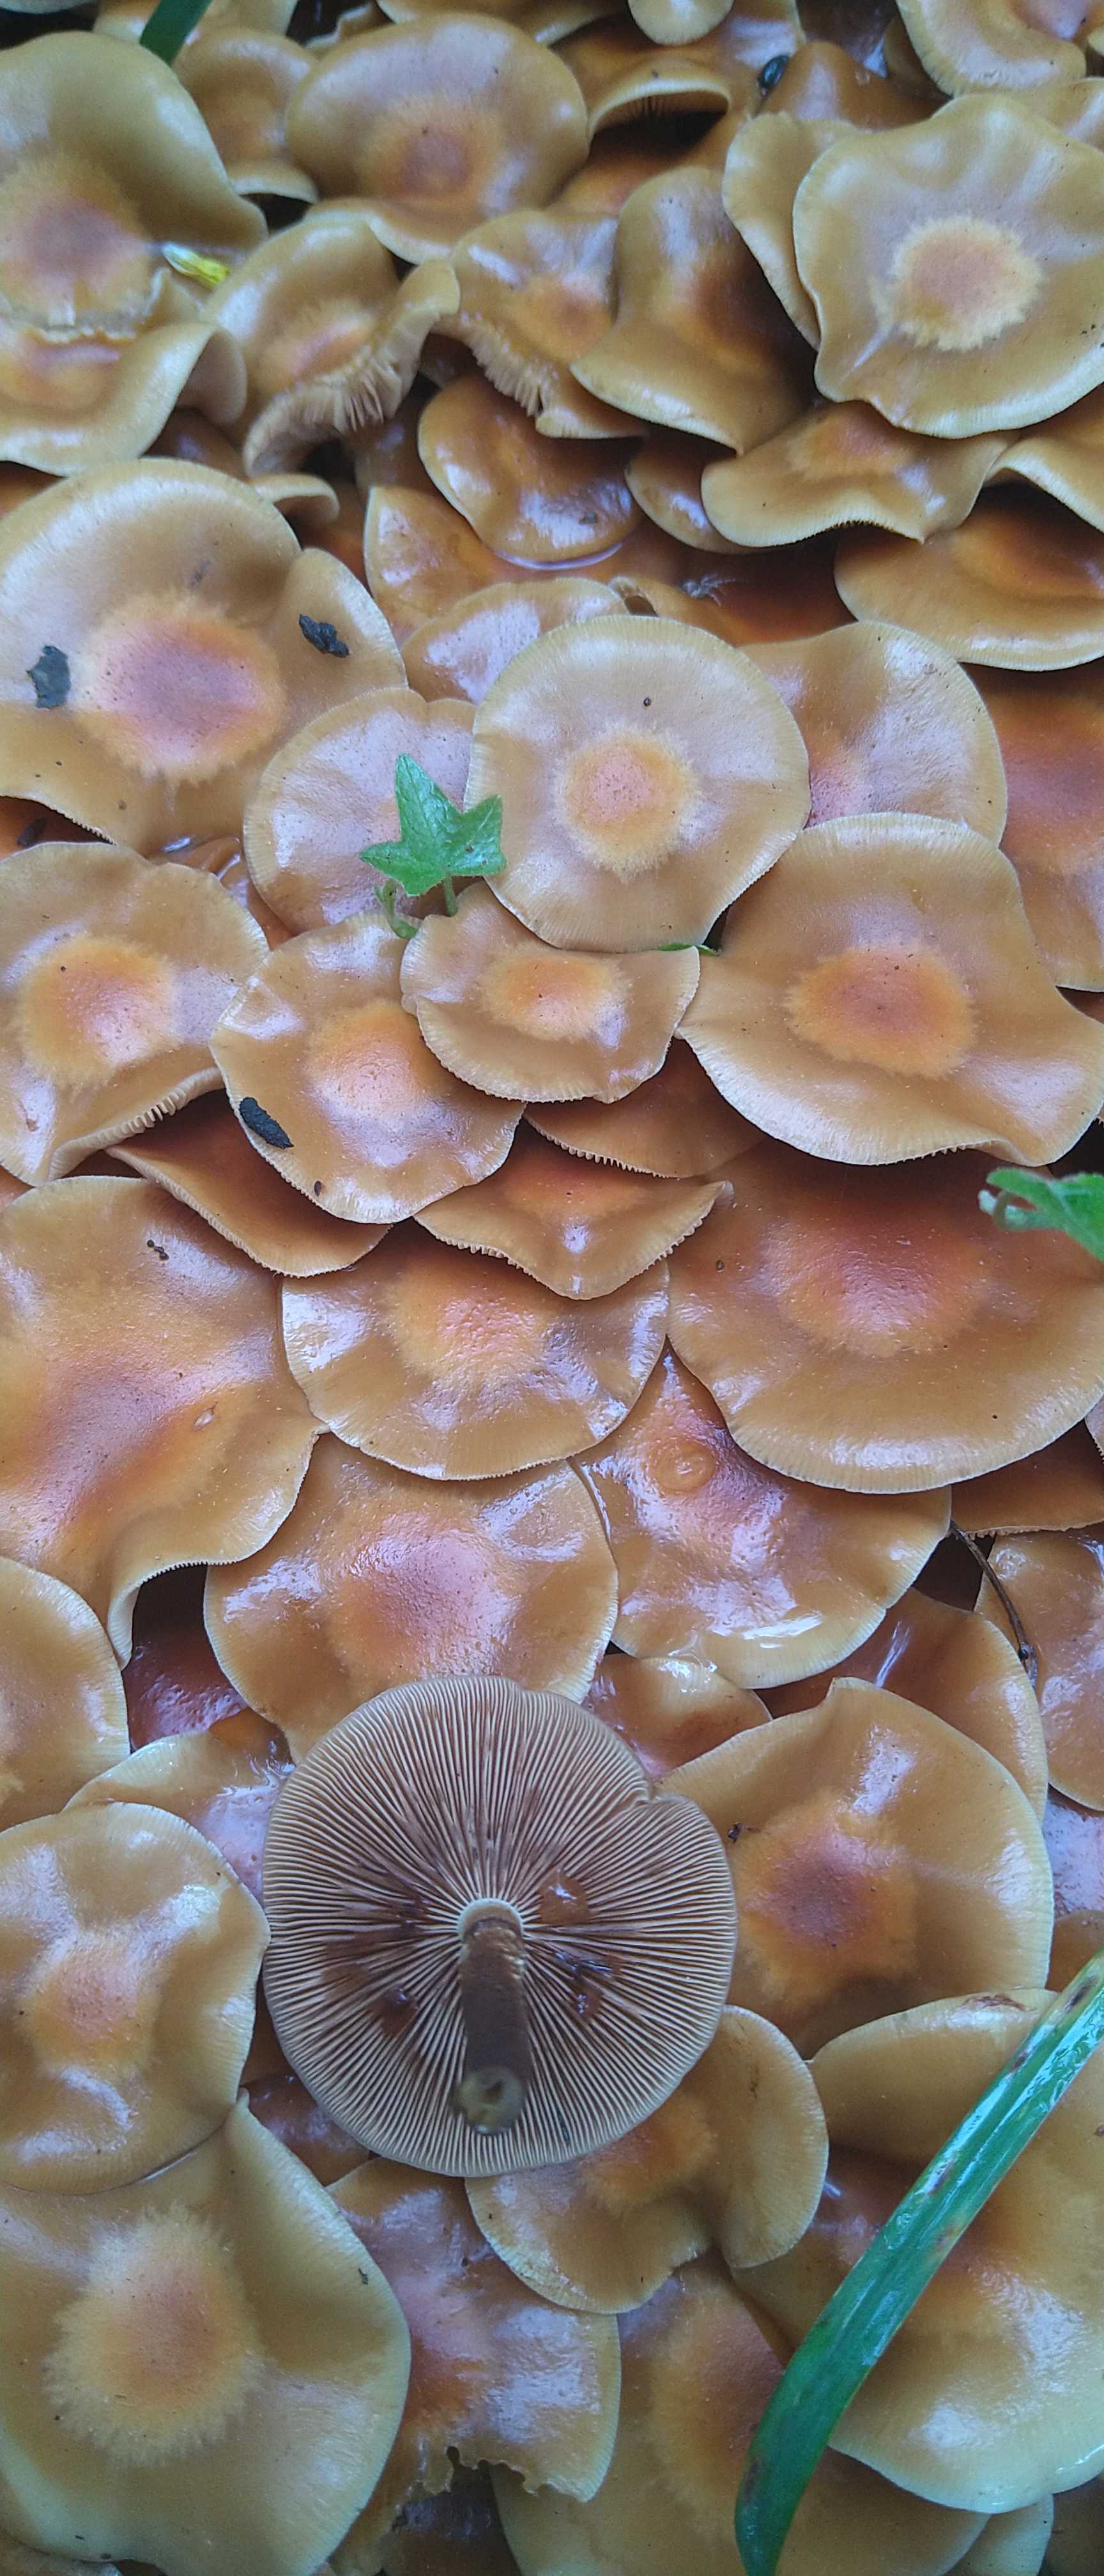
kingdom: Fungi
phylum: Basidiomycota
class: Agaricomycetes
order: Agaricales
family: Strophariaceae
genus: Kuehneromyces
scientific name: Kuehneromyces mutabilis
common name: foranderlig skælhat
